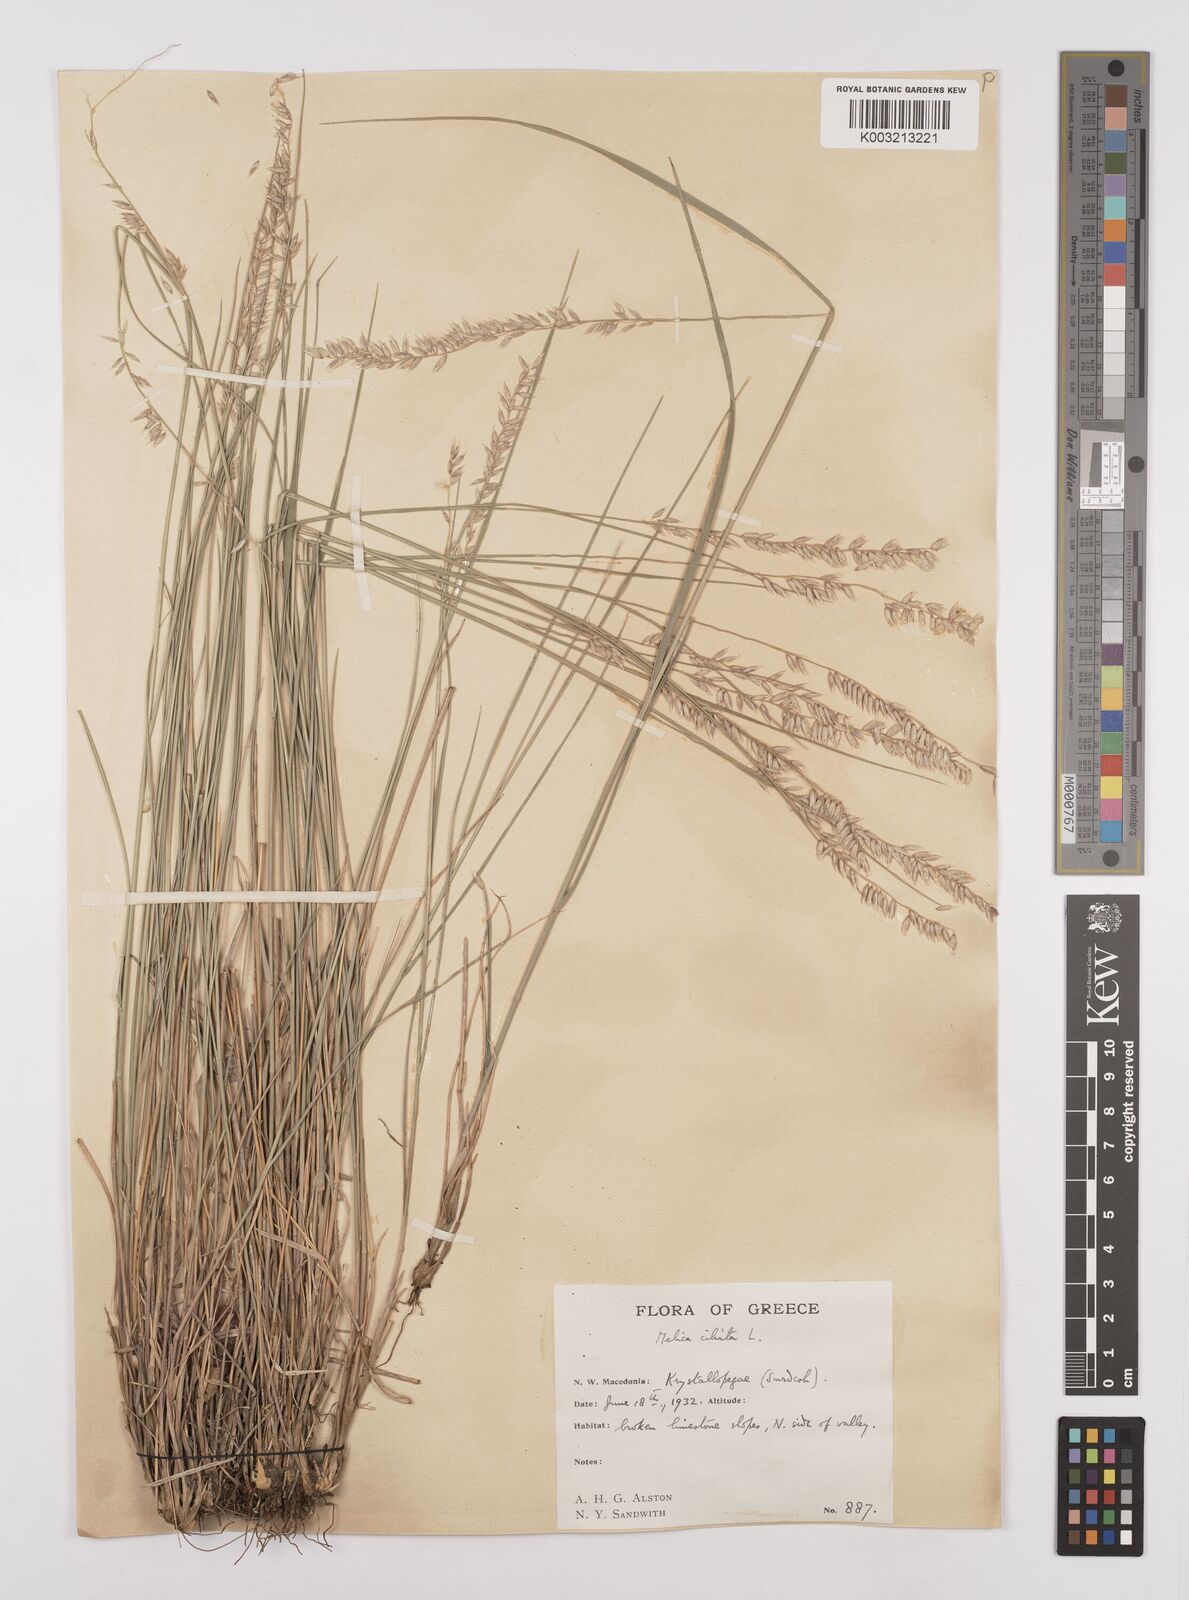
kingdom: Plantae
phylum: Tracheophyta
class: Liliopsida
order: Poales
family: Poaceae
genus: Melica
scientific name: Melica ciliata
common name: Hairy melicgrass
